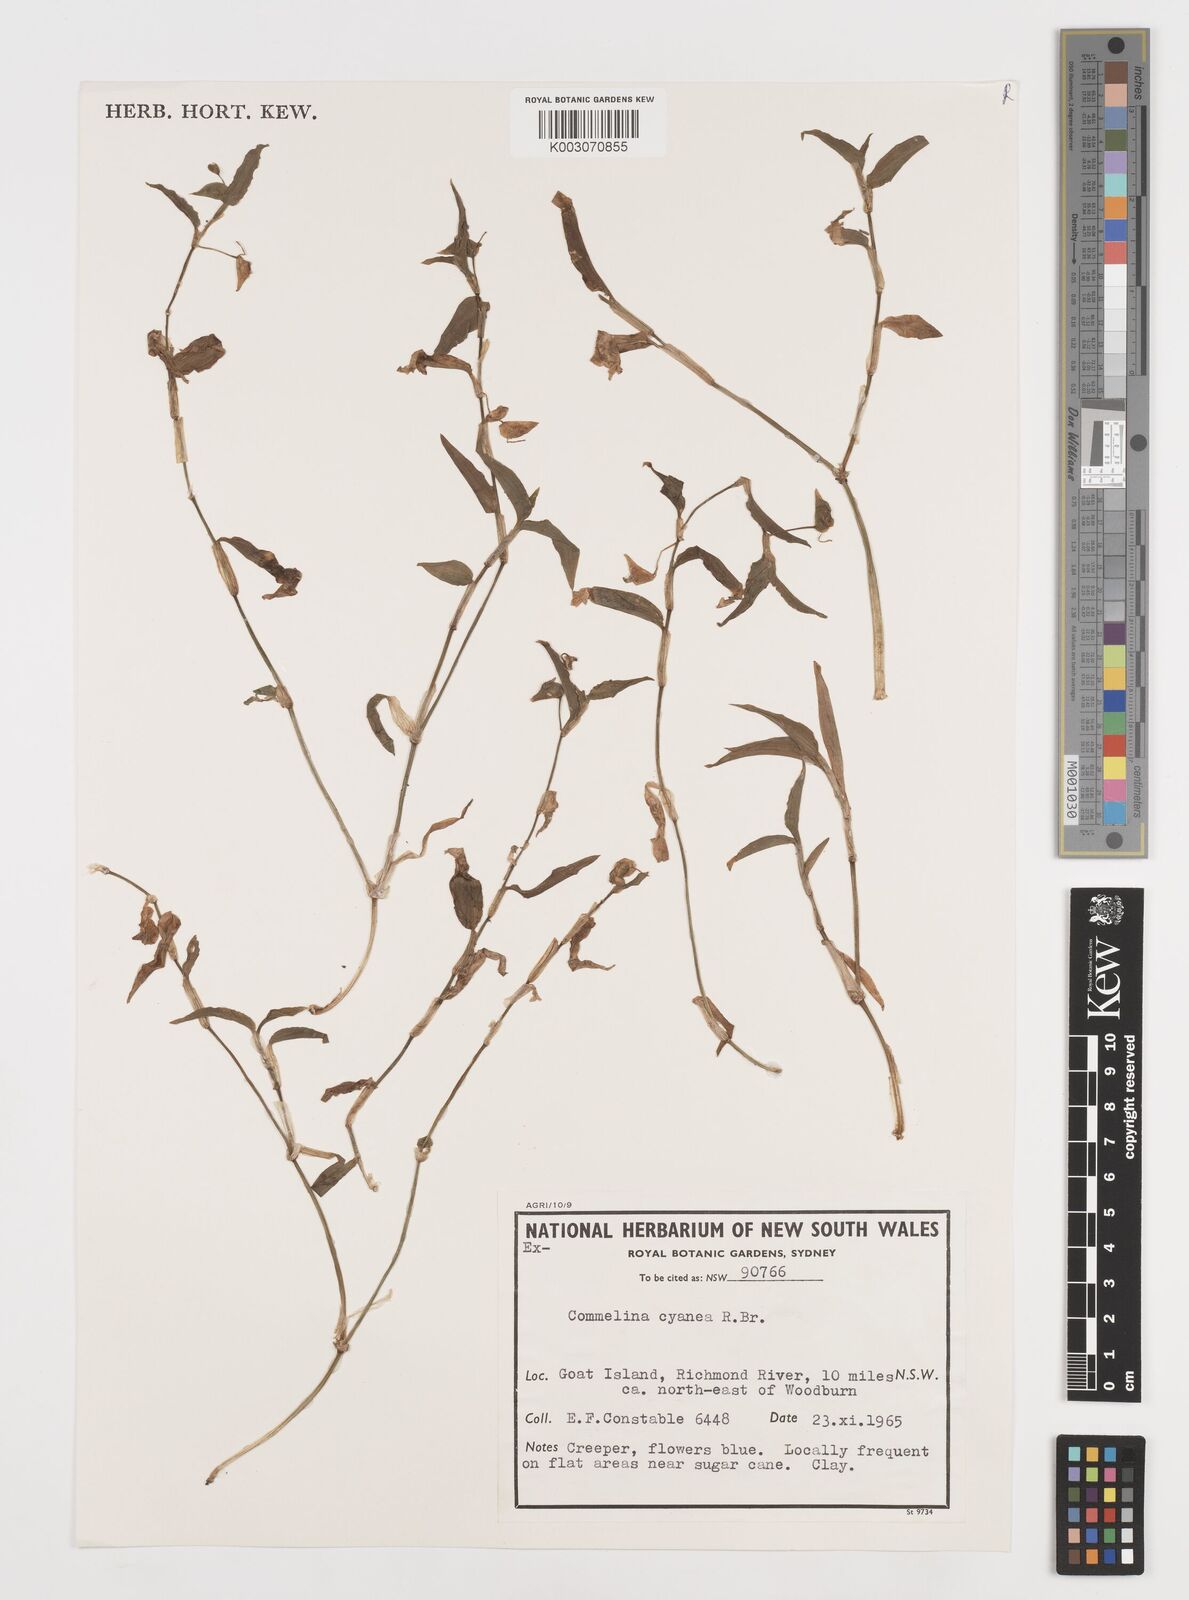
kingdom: Plantae
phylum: Tracheophyta
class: Liliopsida
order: Commelinales
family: Commelinaceae
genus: Commelina
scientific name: Commelina cyanea
